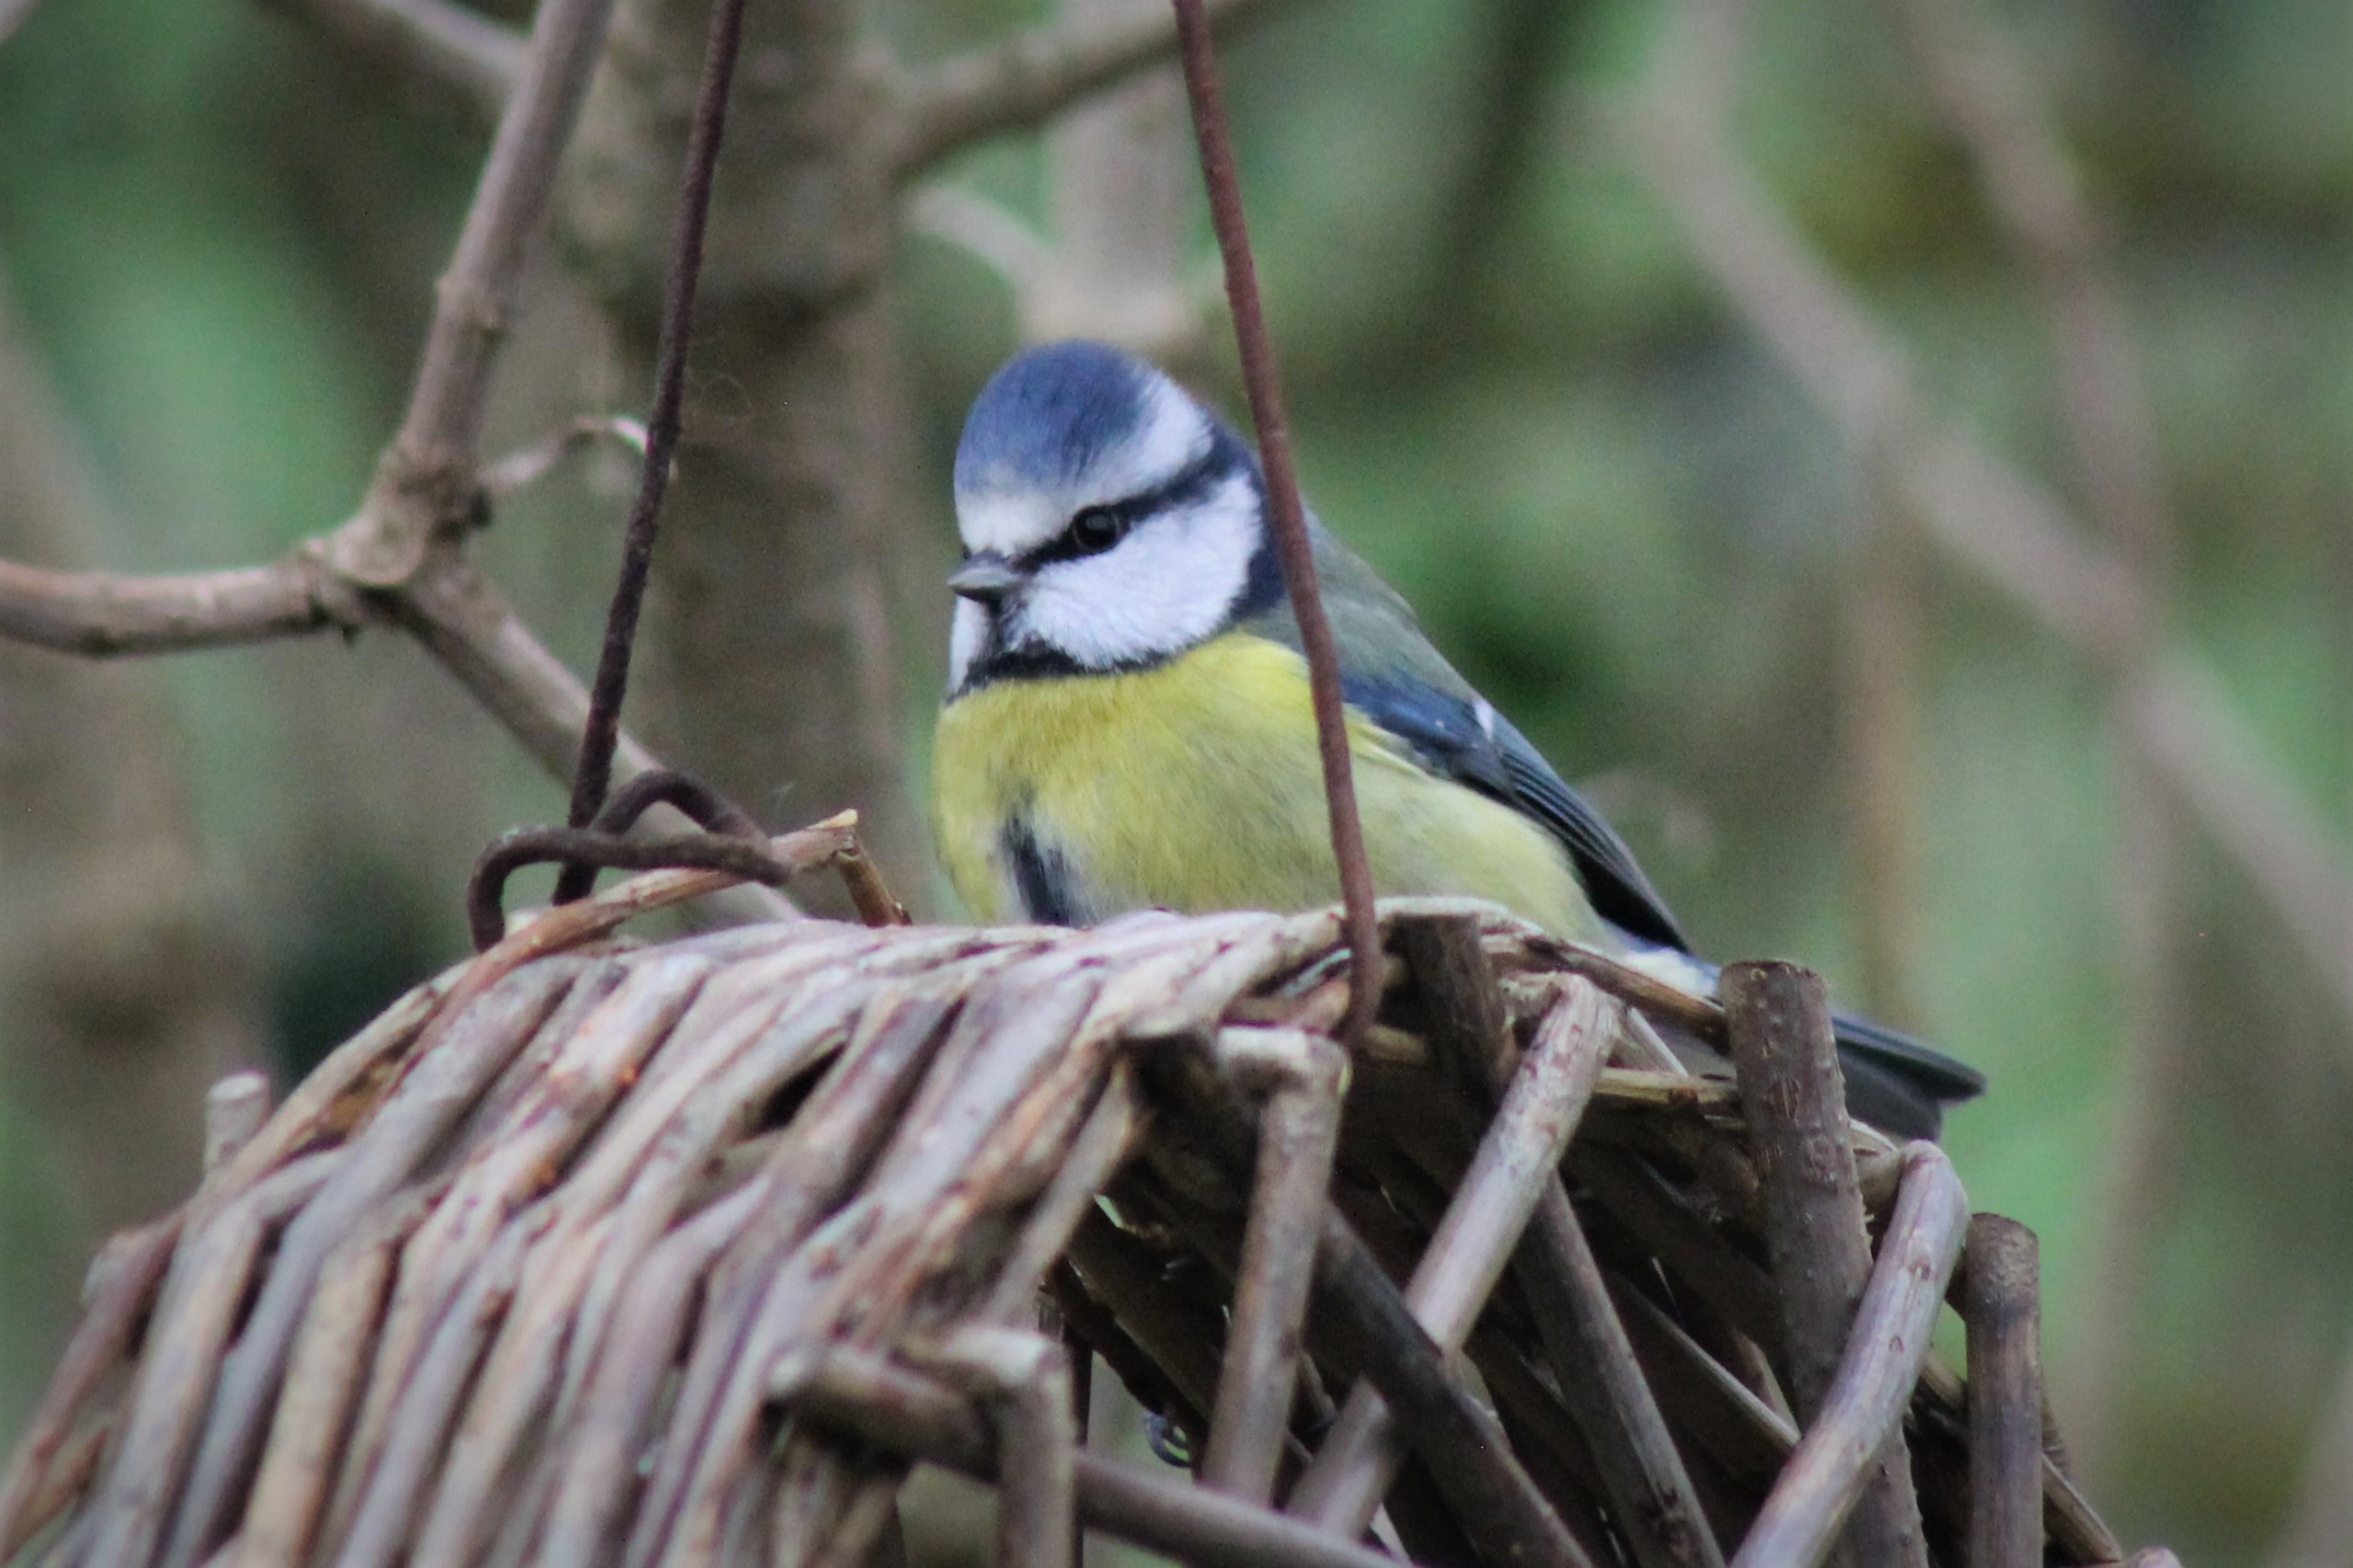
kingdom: Animalia
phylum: Chordata
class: Aves
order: Passeriformes
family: Paridae
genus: Cyanistes
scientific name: Cyanistes caeruleus
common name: Blåmejse
